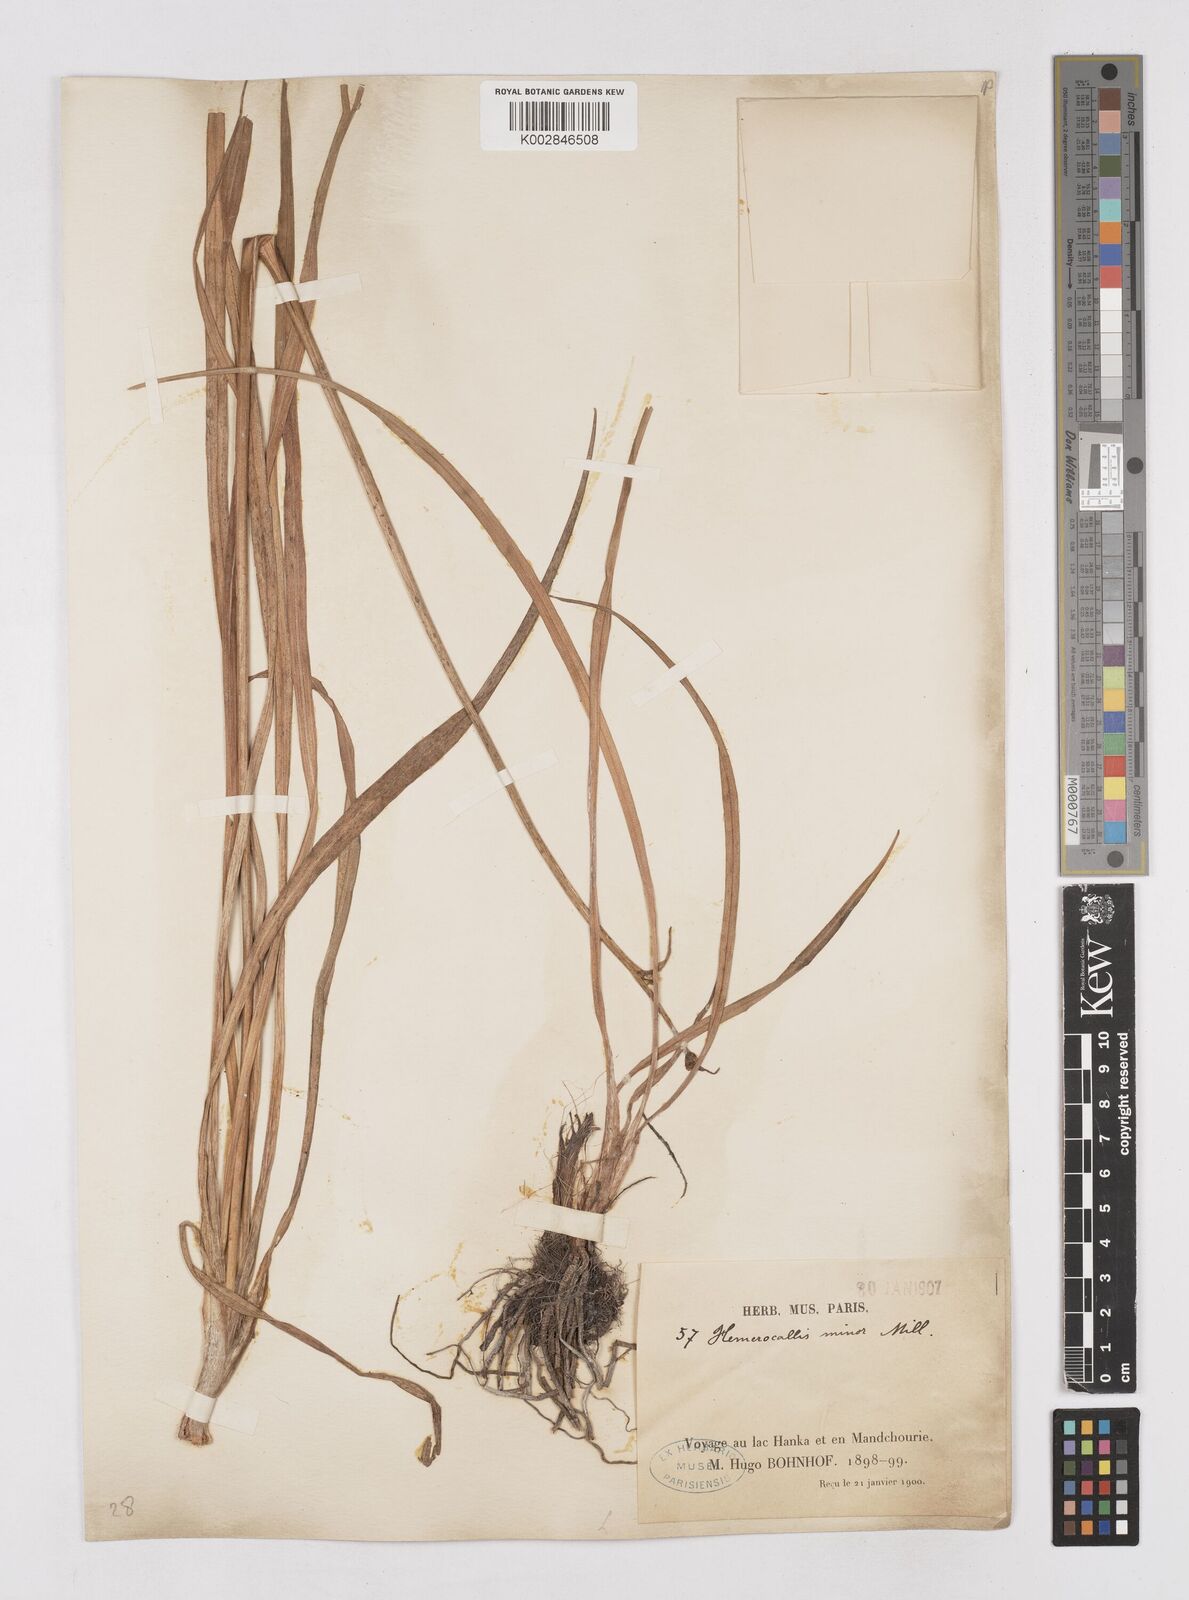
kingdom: Plantae
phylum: Tracheophyta
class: Liliopsida
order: Asparagales
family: Asphodelaceae
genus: Hemerocallis
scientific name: Hemerocallis minor
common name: Small daylily
